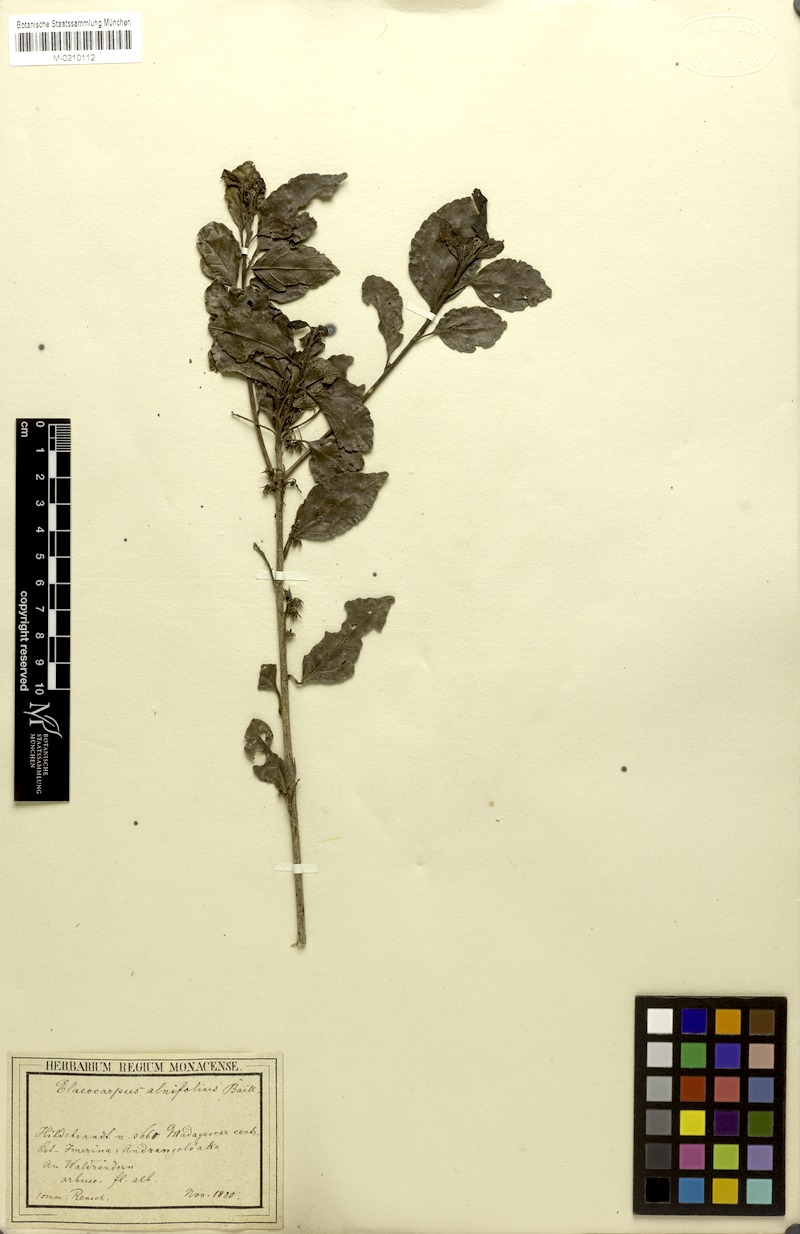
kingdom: Plantae
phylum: Tracheophyta
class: Magnoliopsida
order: Oxalidales
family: Elaeocarpaceae
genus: Elaeocarpus
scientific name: Elaeocarpus alnifolius
